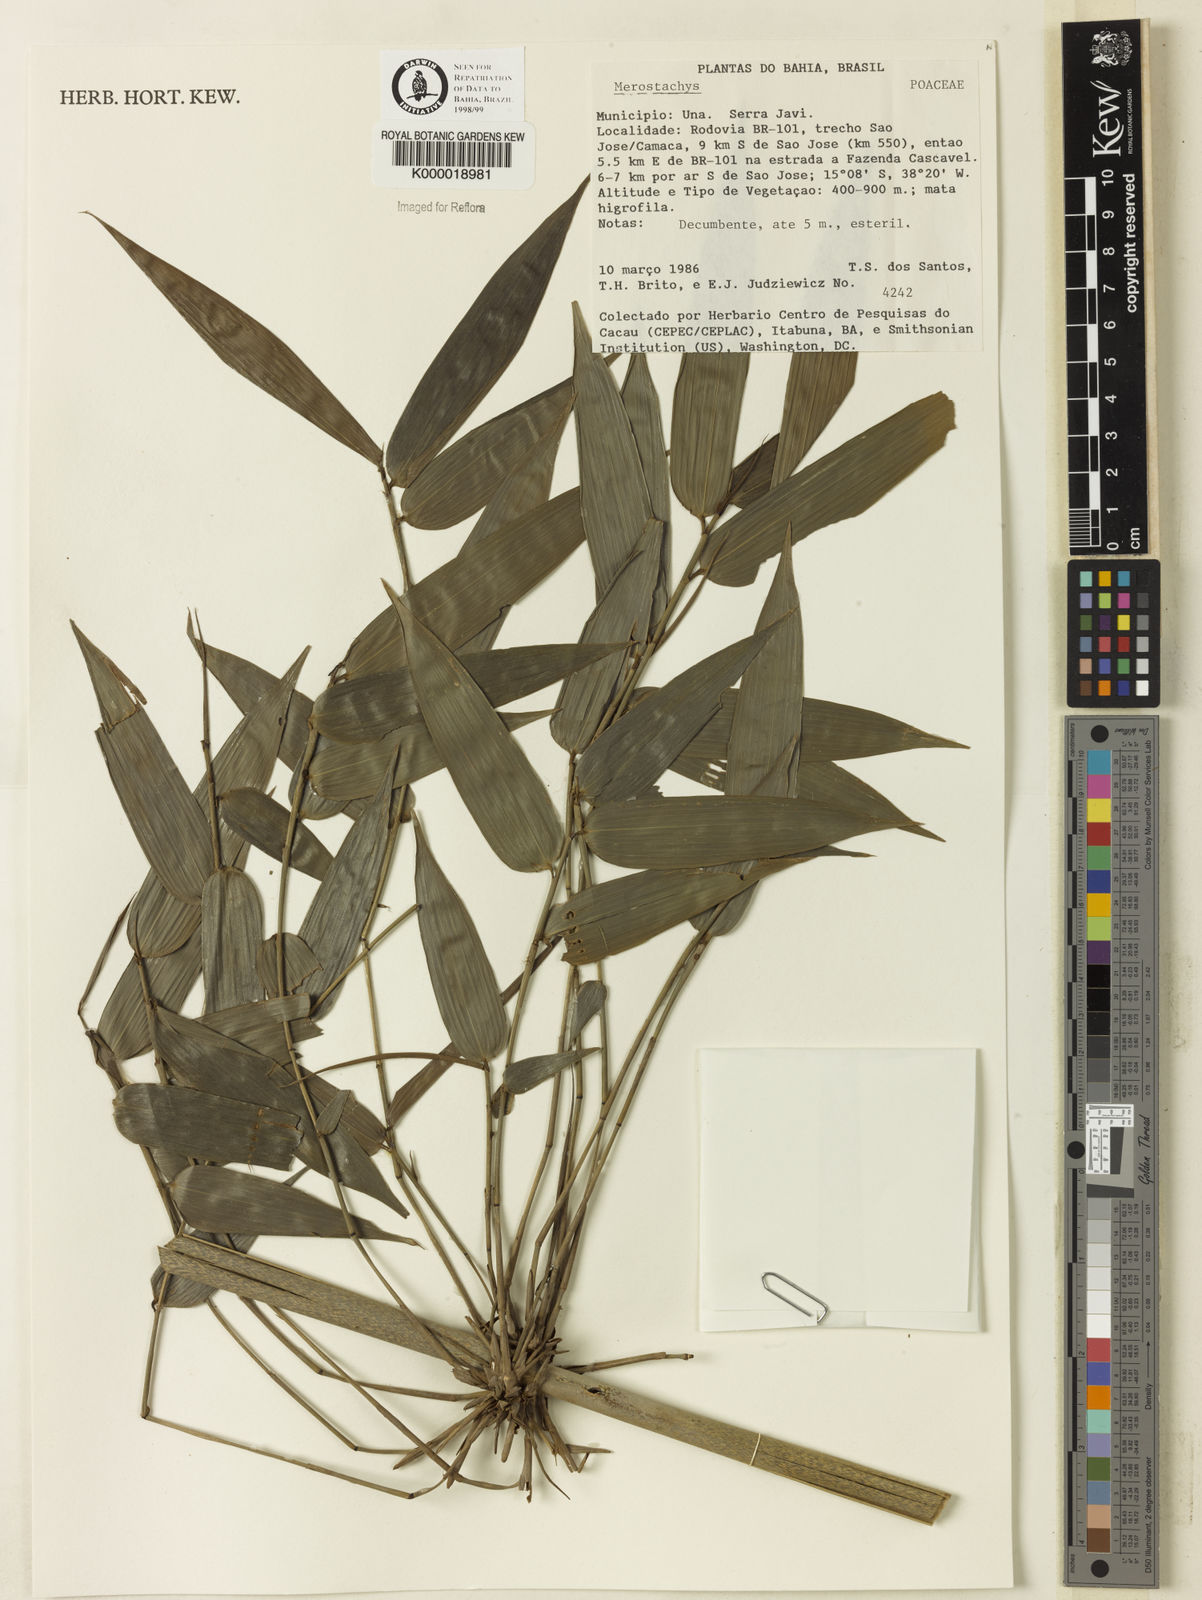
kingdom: Plantae
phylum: Tracheophyta
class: Liliopsida
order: Poales
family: Poaceae
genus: Merostachys
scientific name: Merostachys
